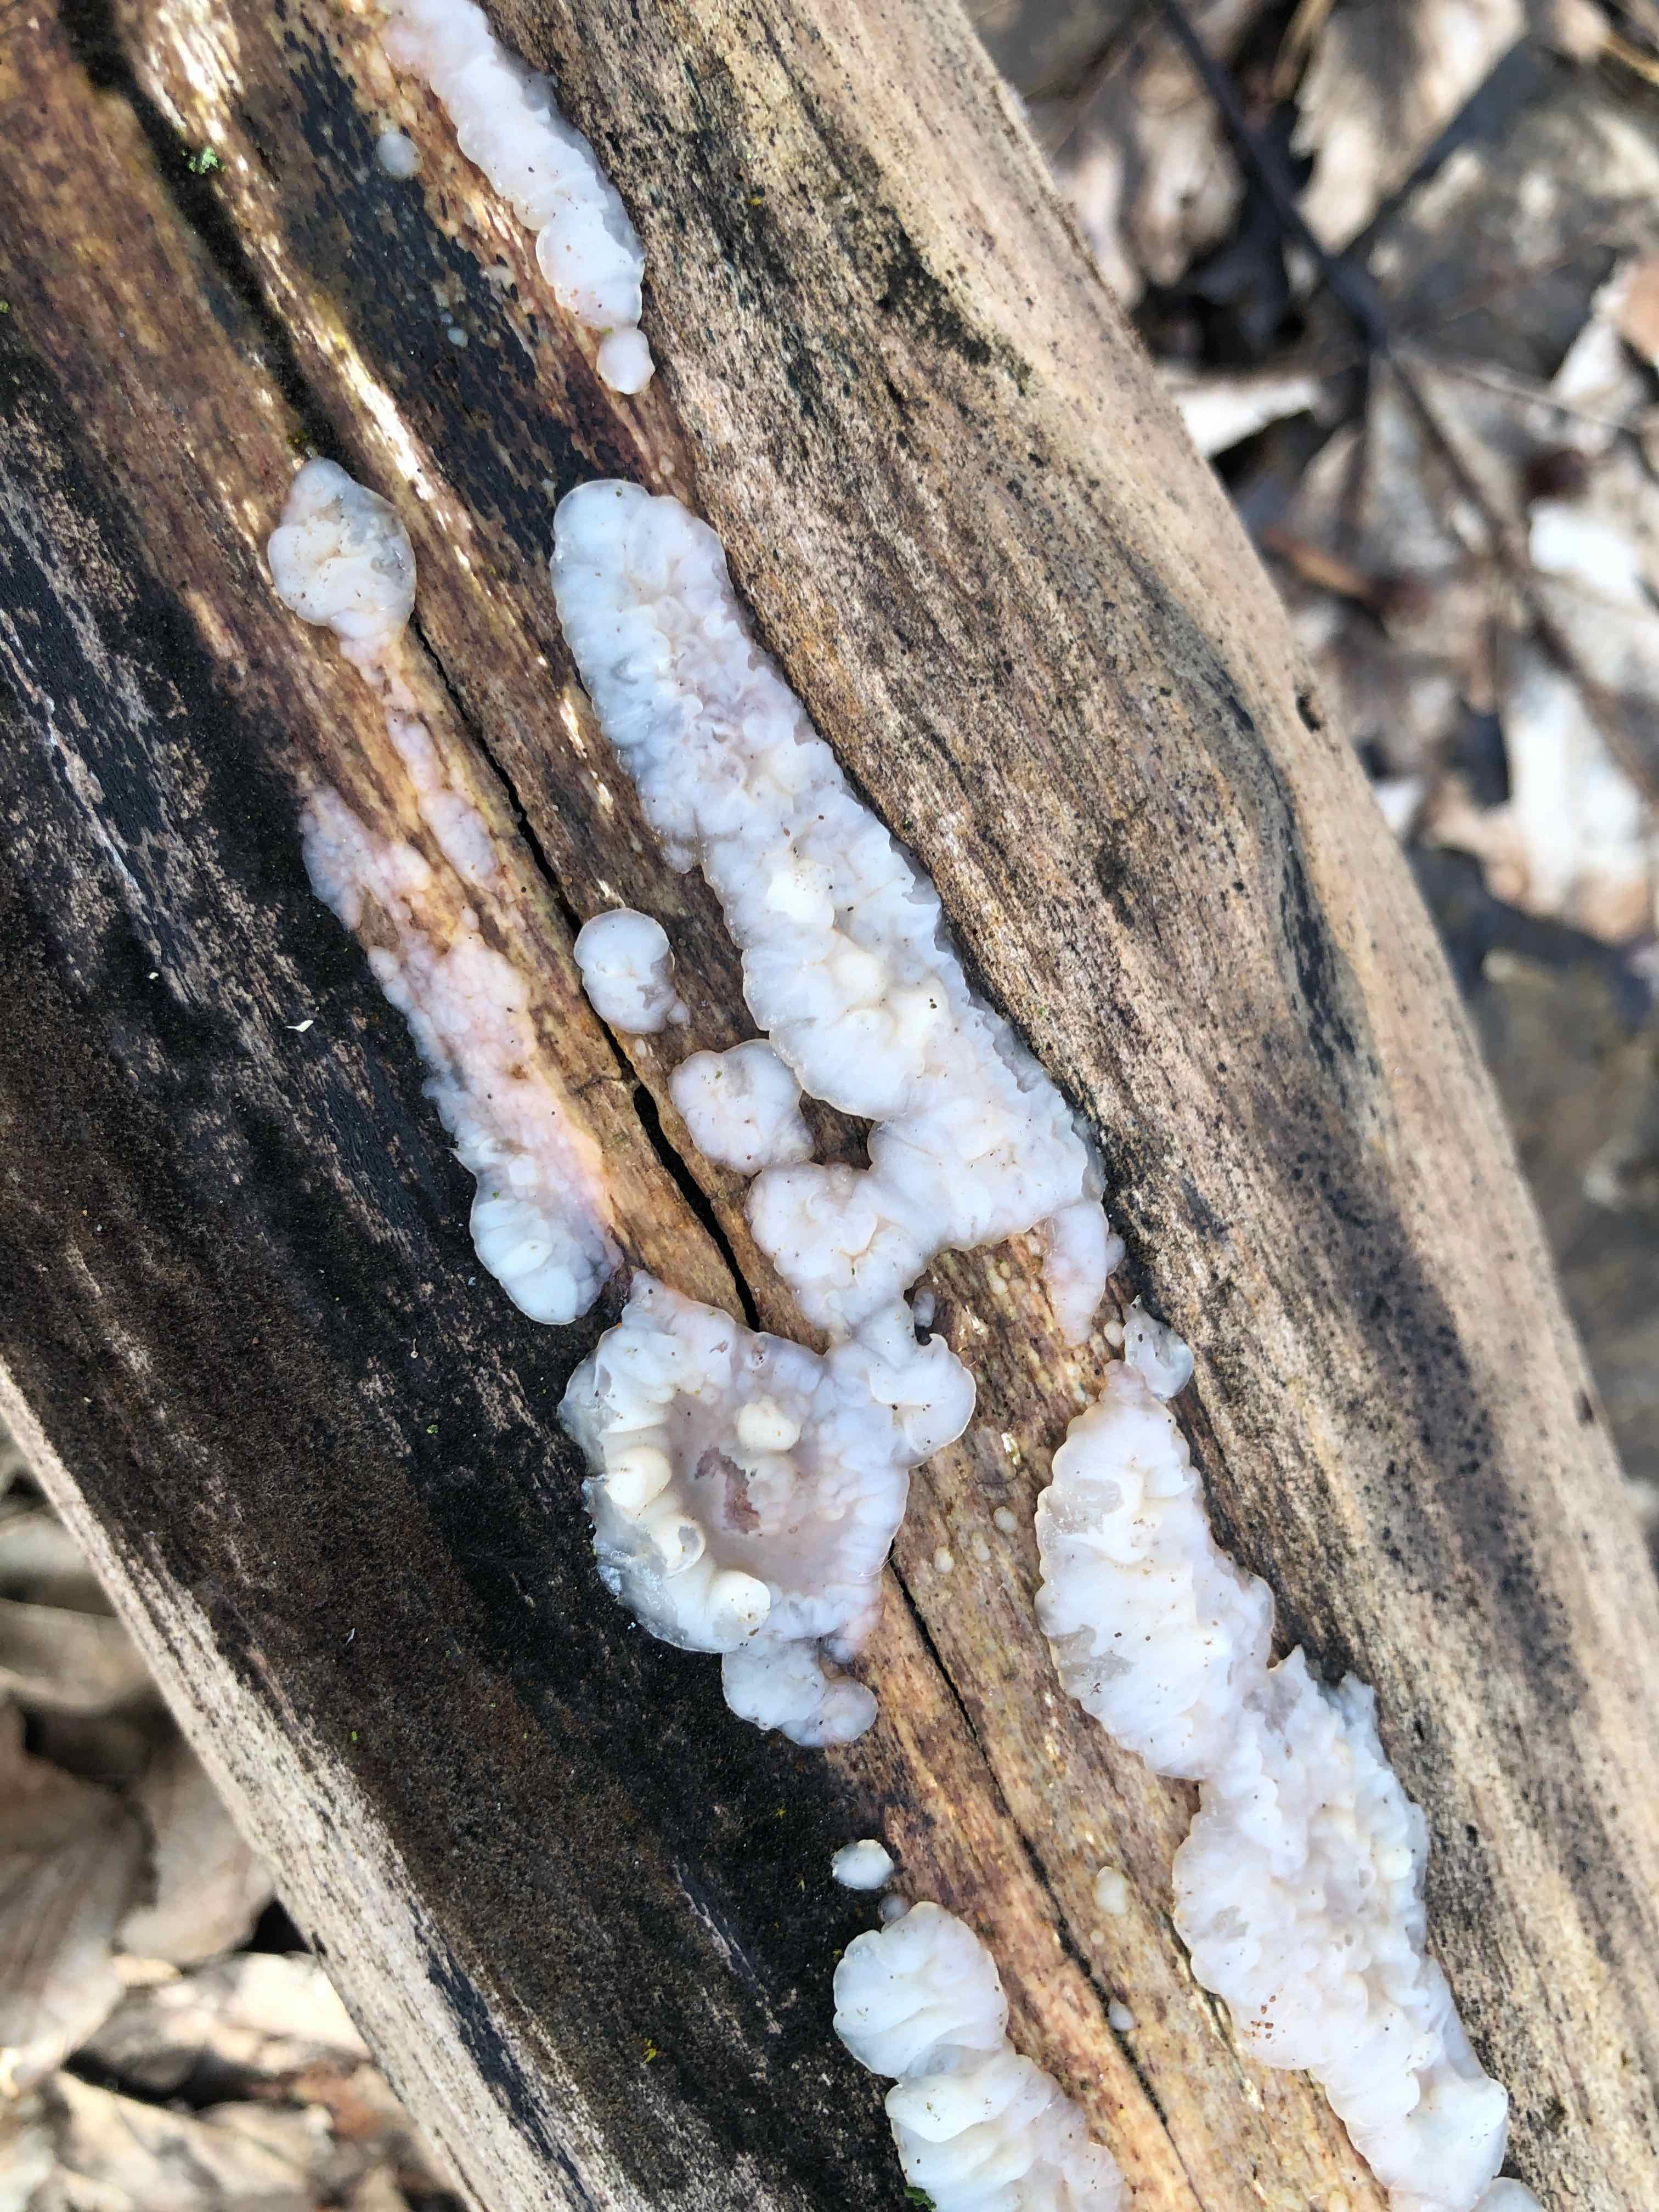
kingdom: Fungi
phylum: Basidiomycota
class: Agaricomycetes
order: Auriculariales
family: Auriculariaceae
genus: Exidia
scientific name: Exidia thuretiana
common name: hvidlig bævretop
